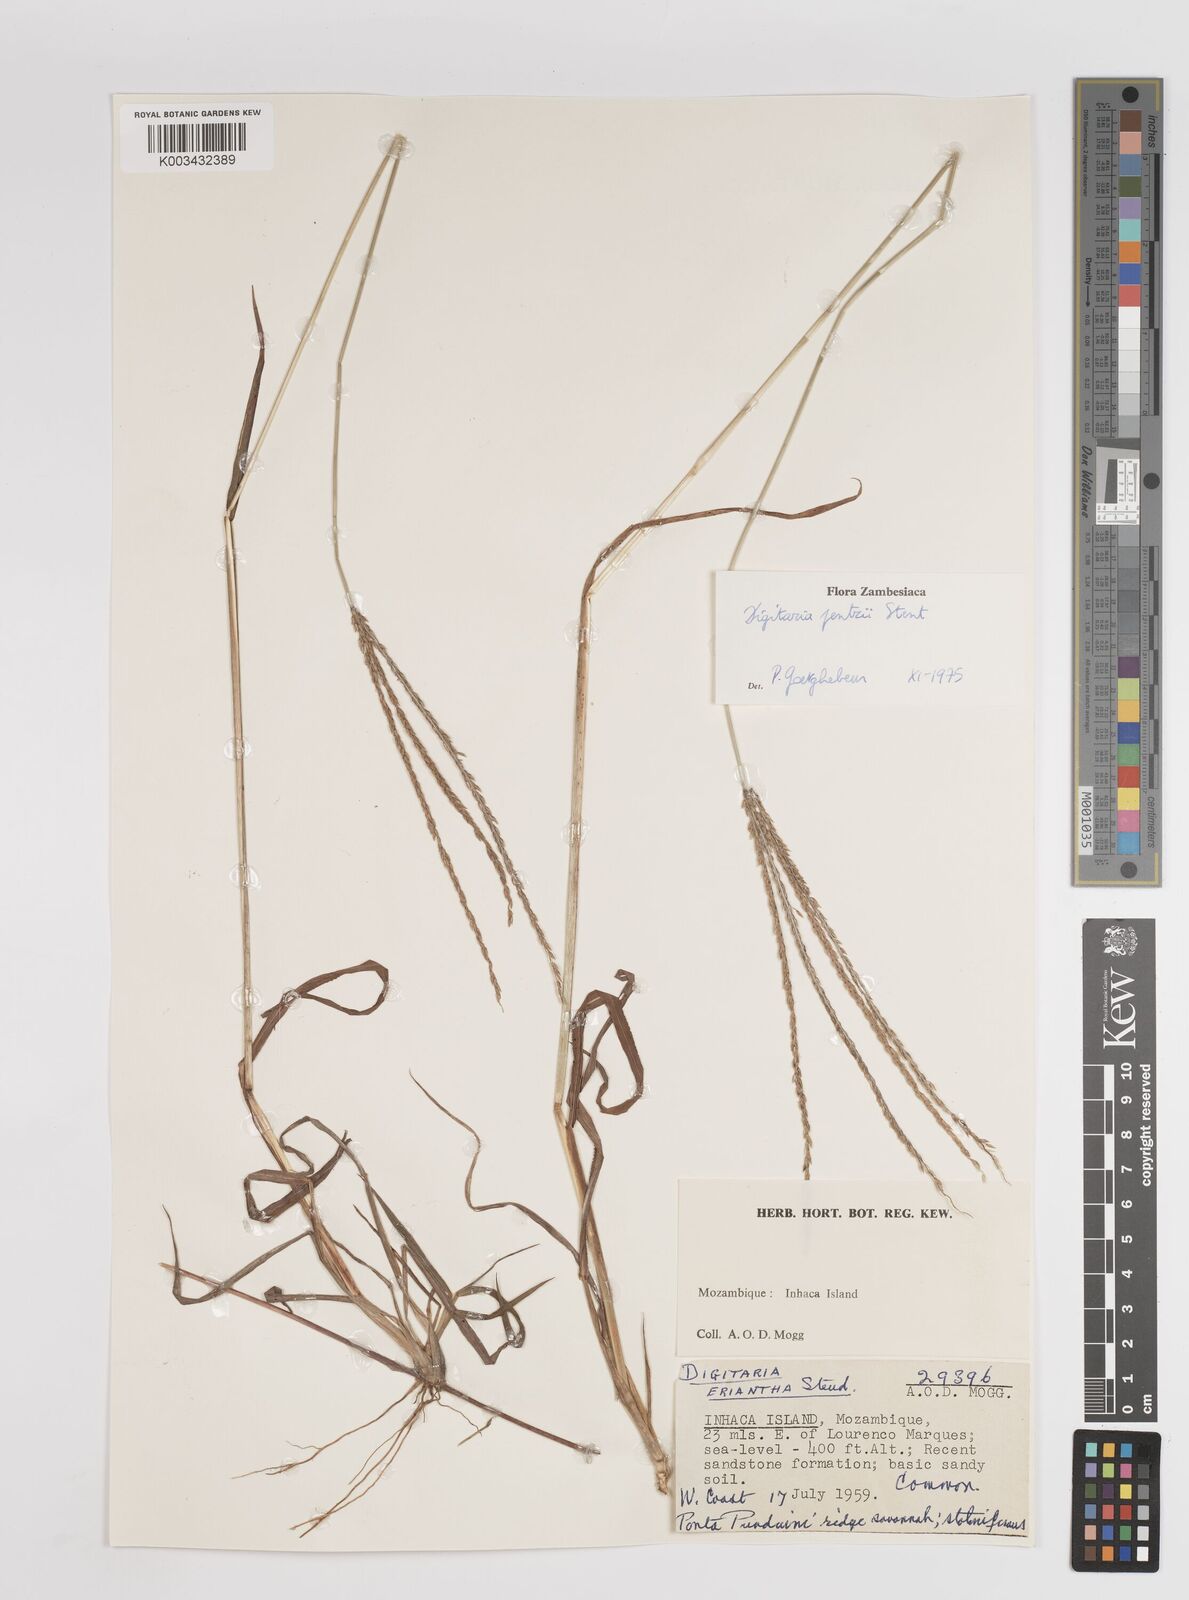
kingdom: Plantae
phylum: Tracheophyta
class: Liliopsida
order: Poales
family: Poaceae
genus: Digitaria
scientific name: Digitaria eriantha
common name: Digitgrass
